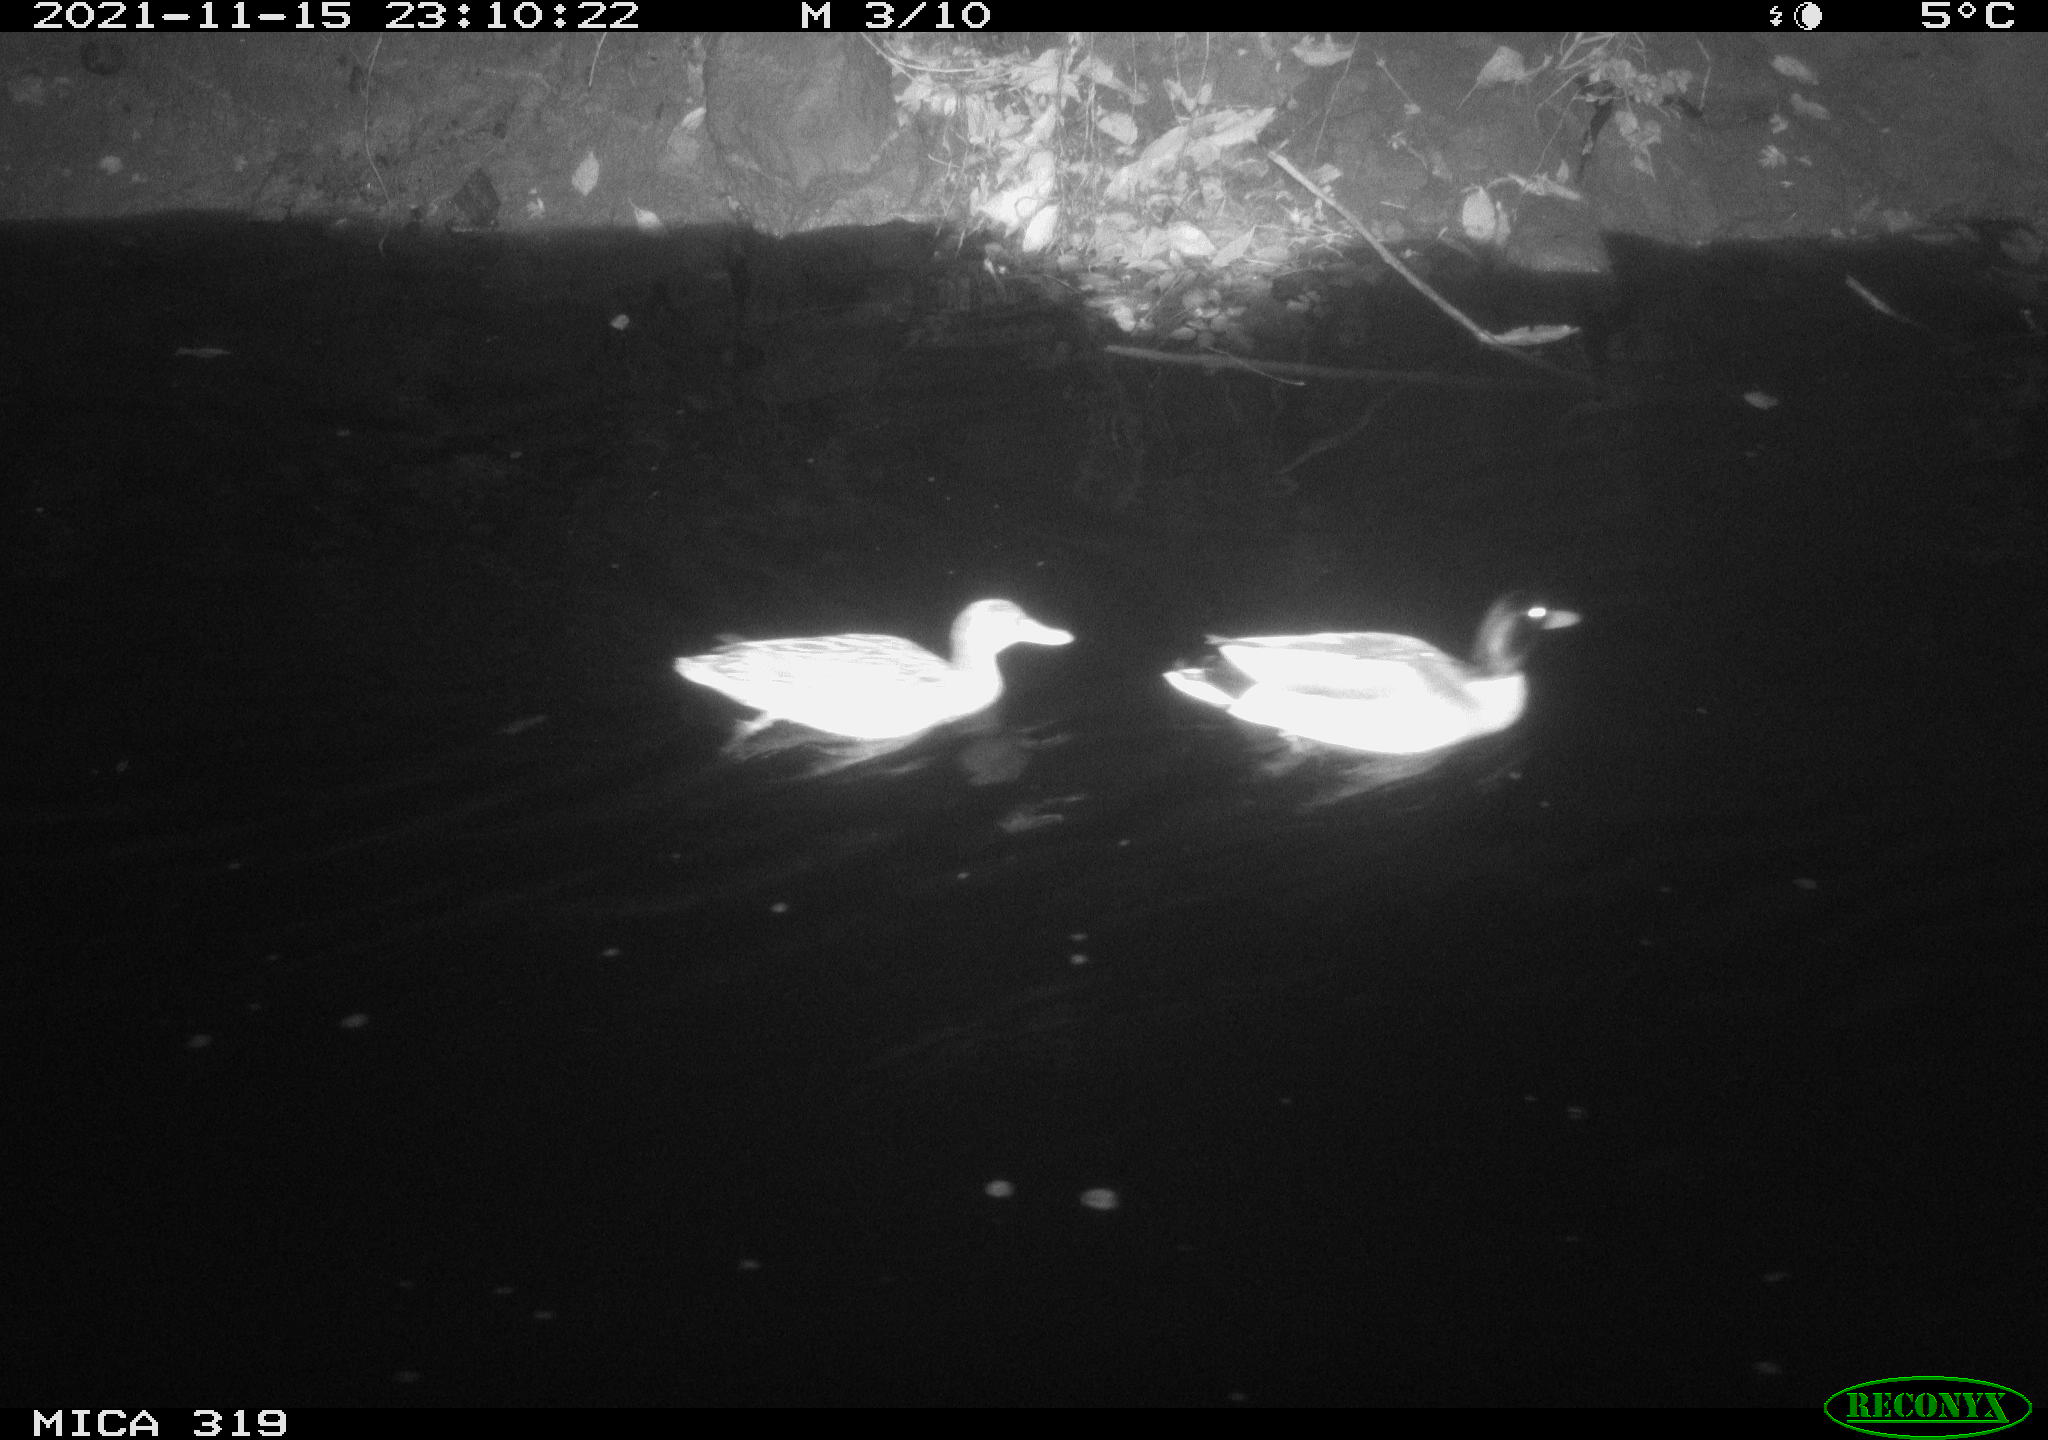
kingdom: Animalia
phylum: Chordata
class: Aves
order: Anseriformes
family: Anatidae
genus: Anas
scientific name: Anas platyrhynchos
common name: Mallard
